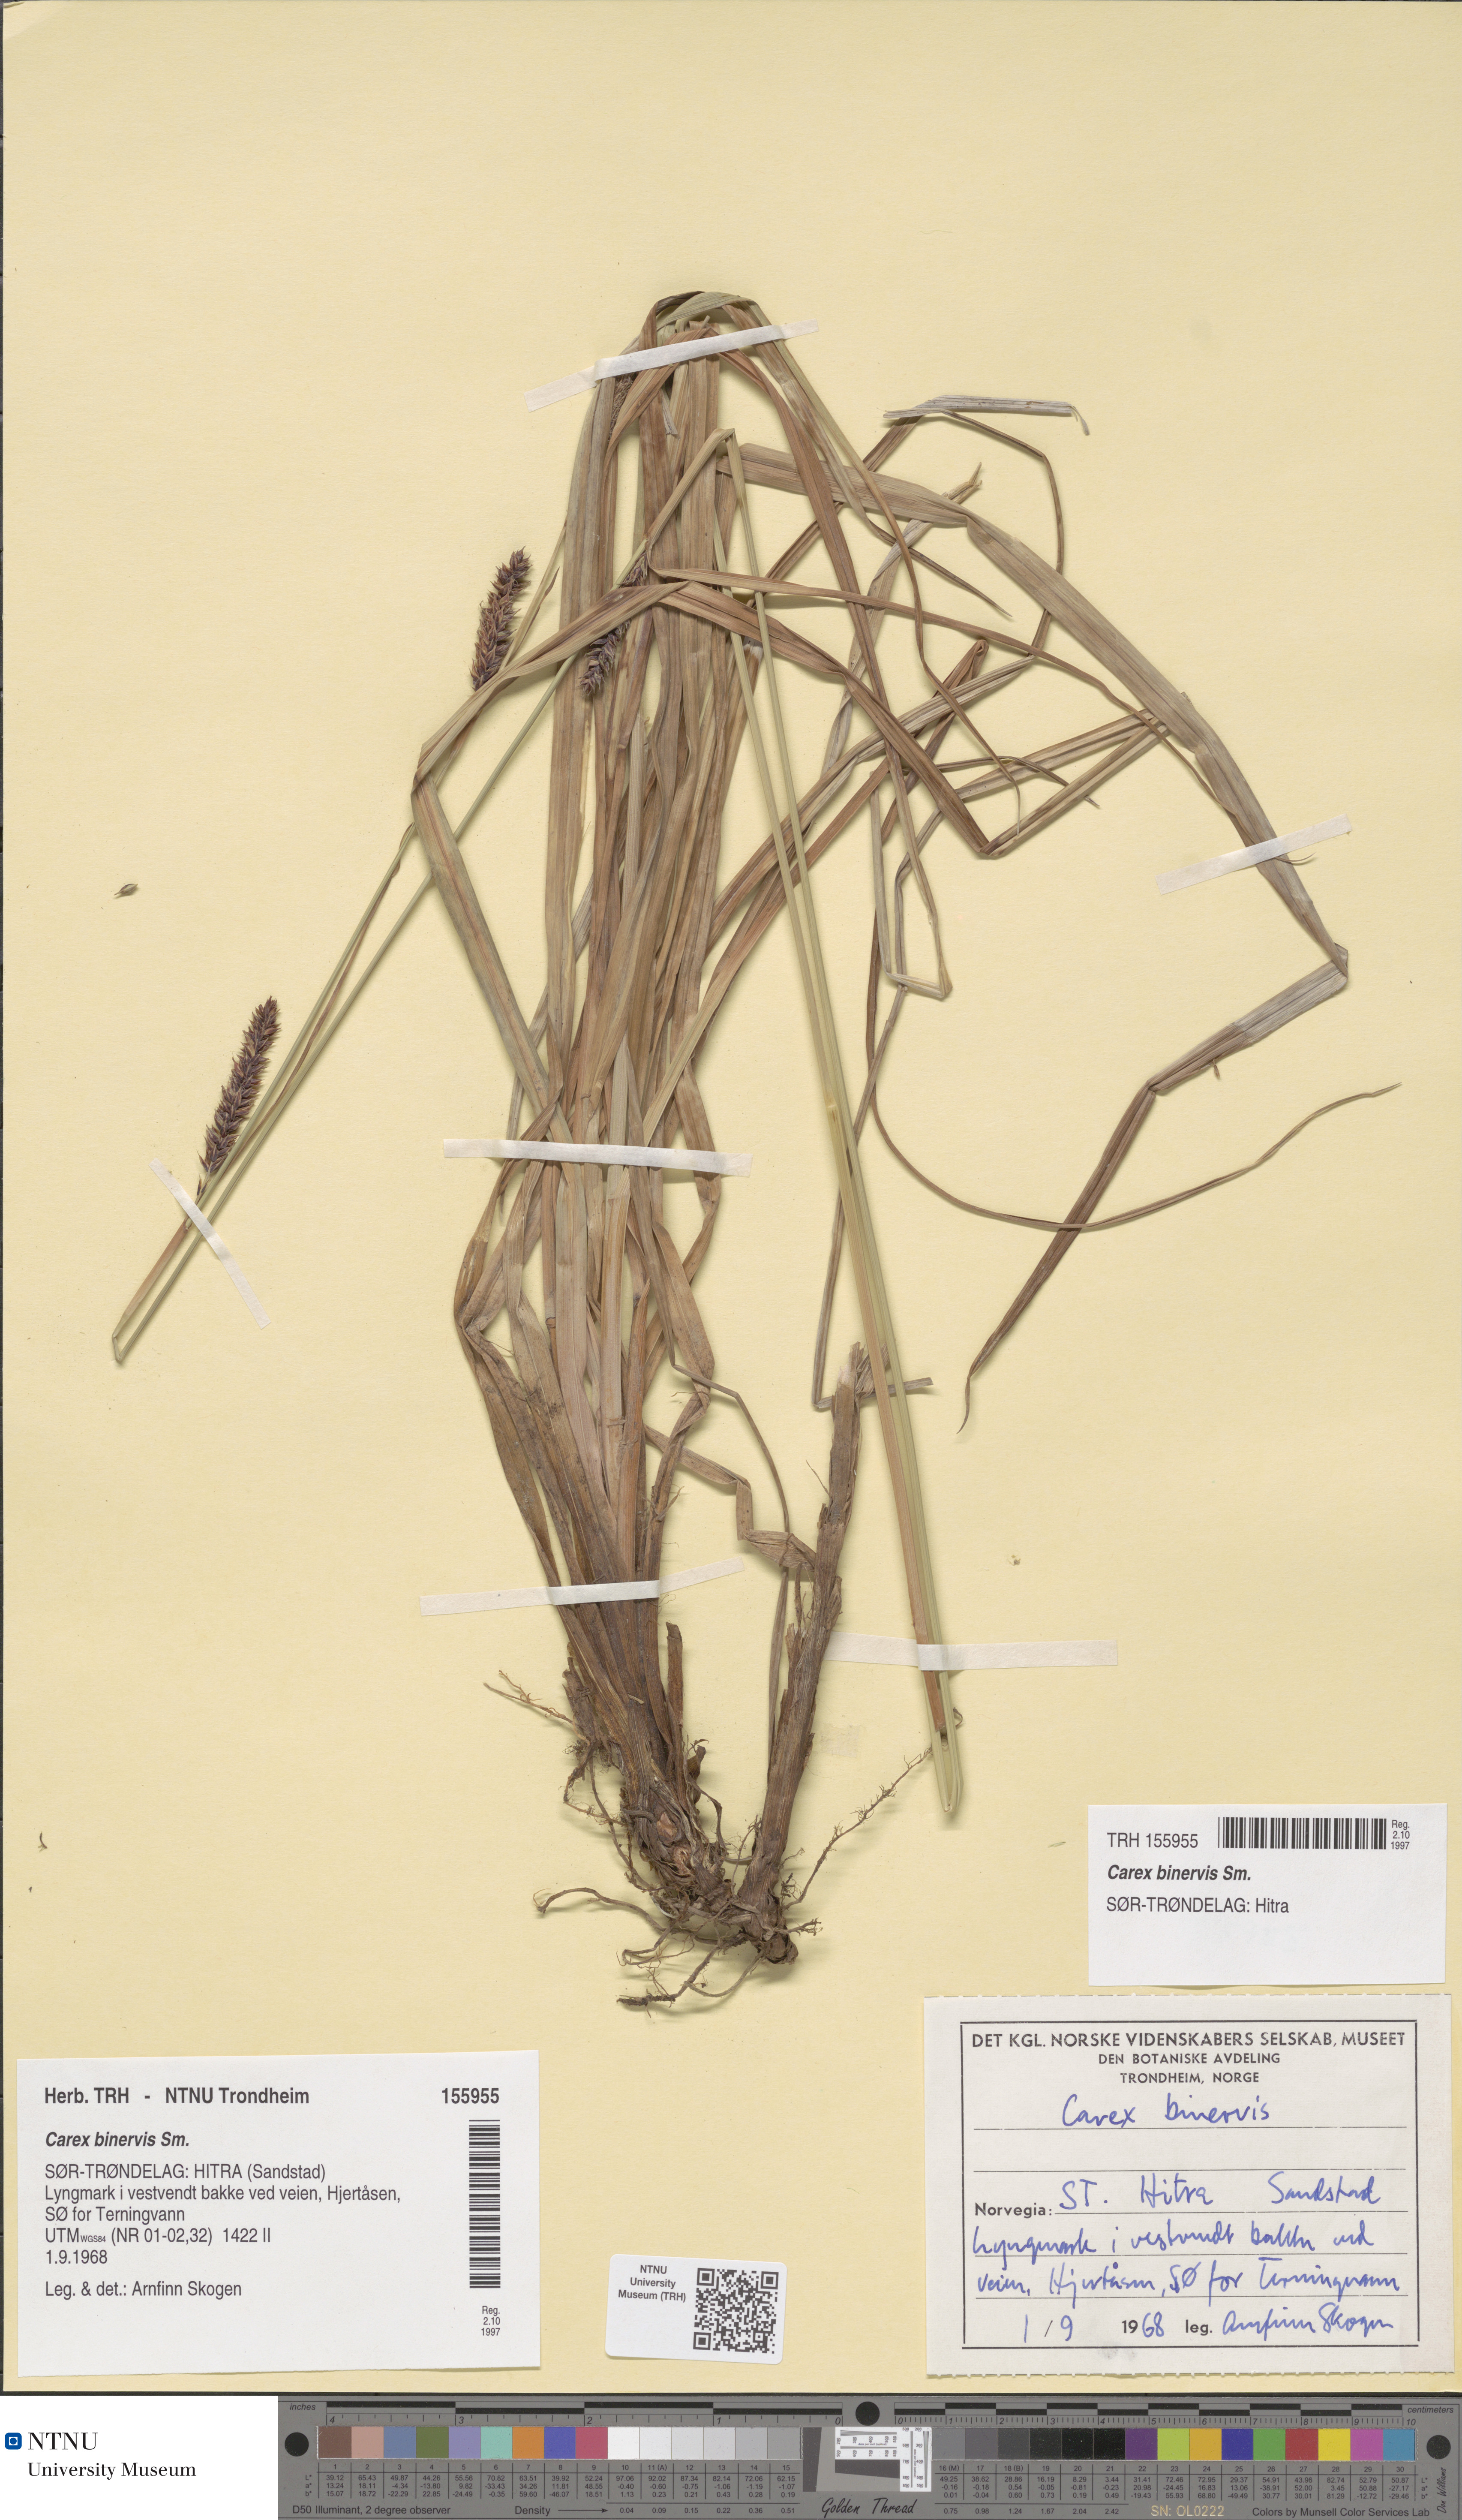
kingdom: Plantae
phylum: Tracheophyta
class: Liliopsida
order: Poales
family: Cyperaceae
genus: Carex
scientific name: Carex binervis
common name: Green-ribbed sedge
